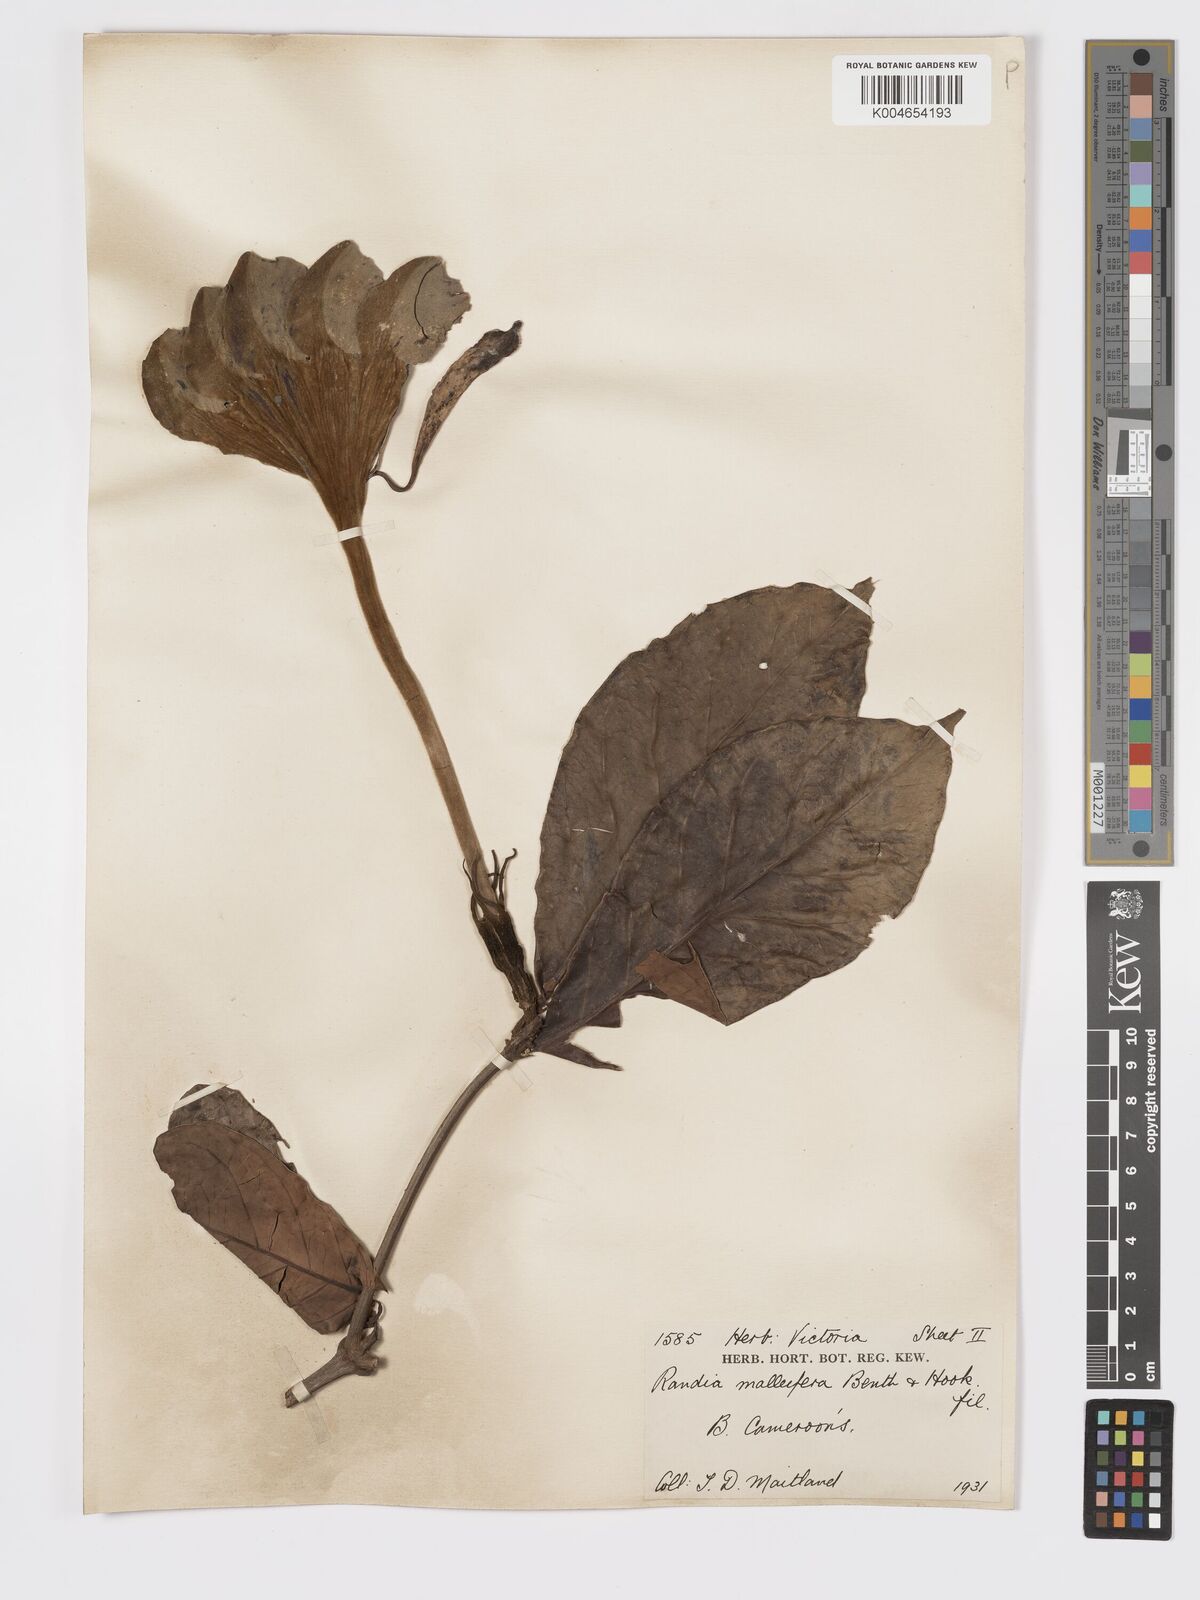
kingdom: Plantae
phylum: Tracheophyta
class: Magnoliopsida
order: Gentianales
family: Rubiaceae
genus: Rothmannia
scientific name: Rothmannia whitfieldii
